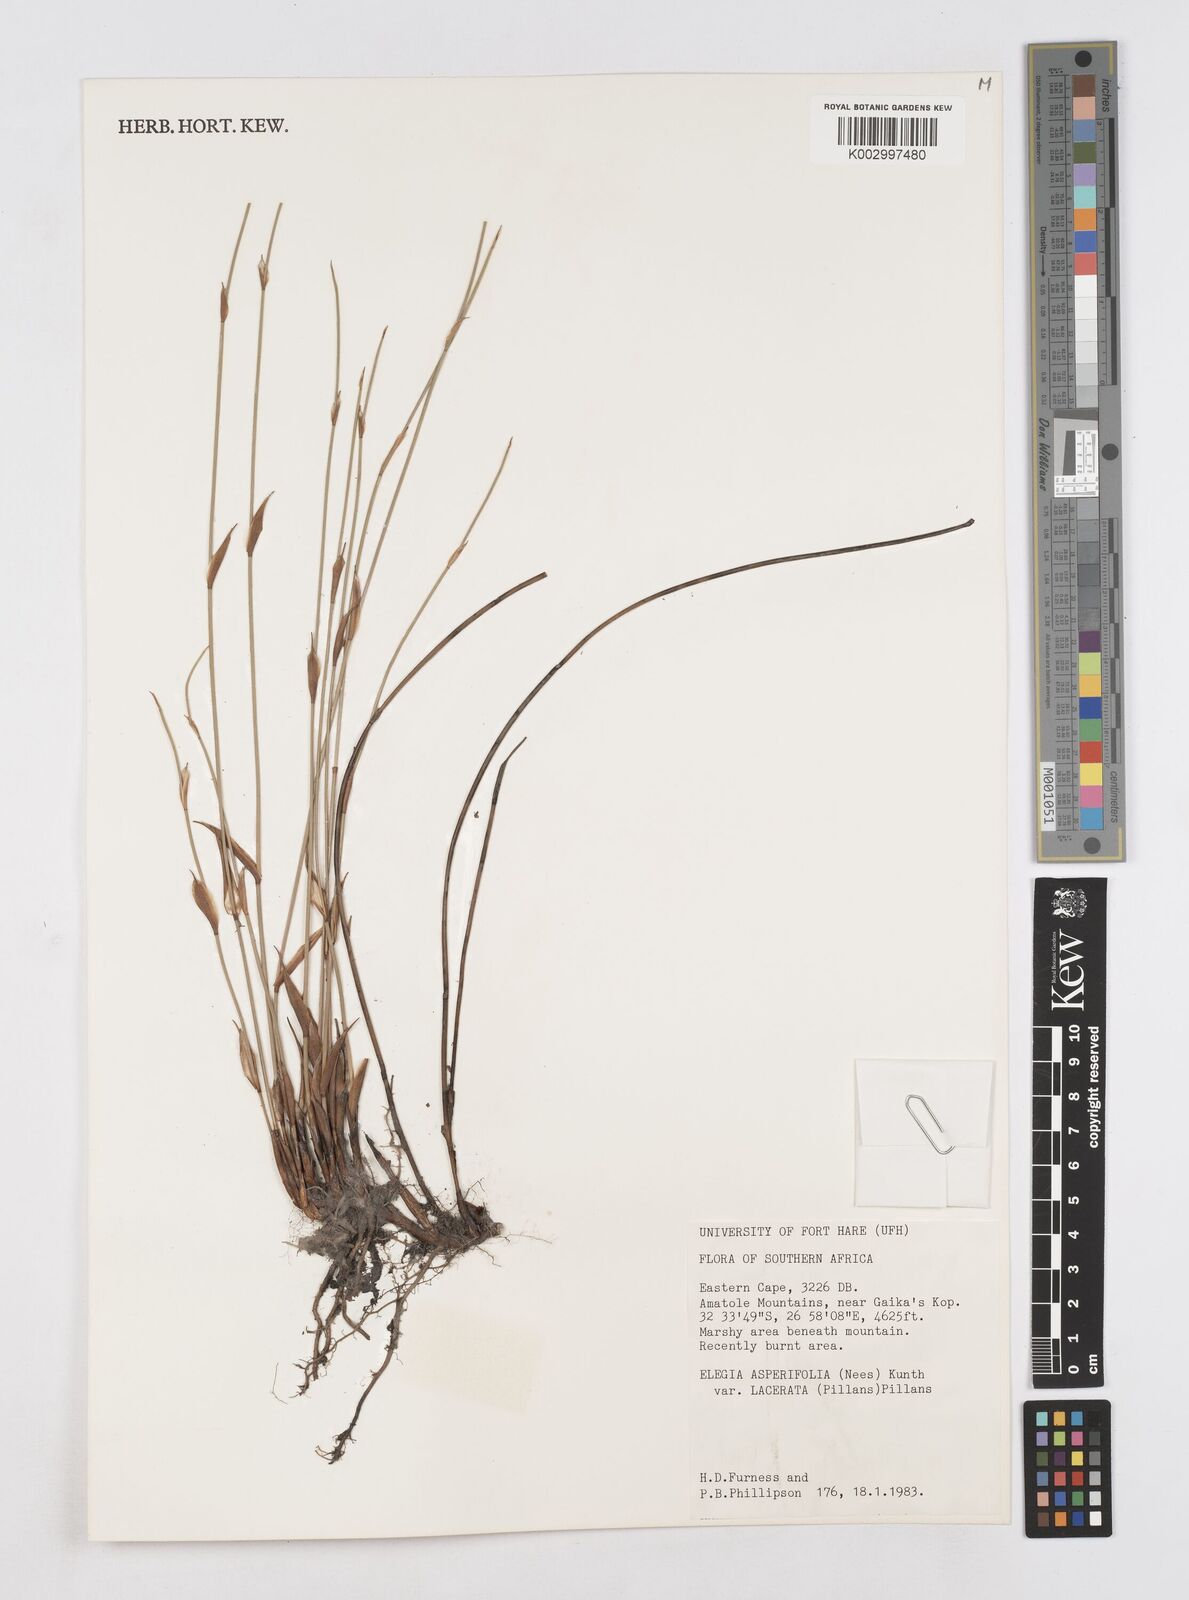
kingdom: Plantae
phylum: Tracheophyta
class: Liliopsida
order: Poales
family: Restionaceae
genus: Elegia
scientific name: Elegia asperiflora
